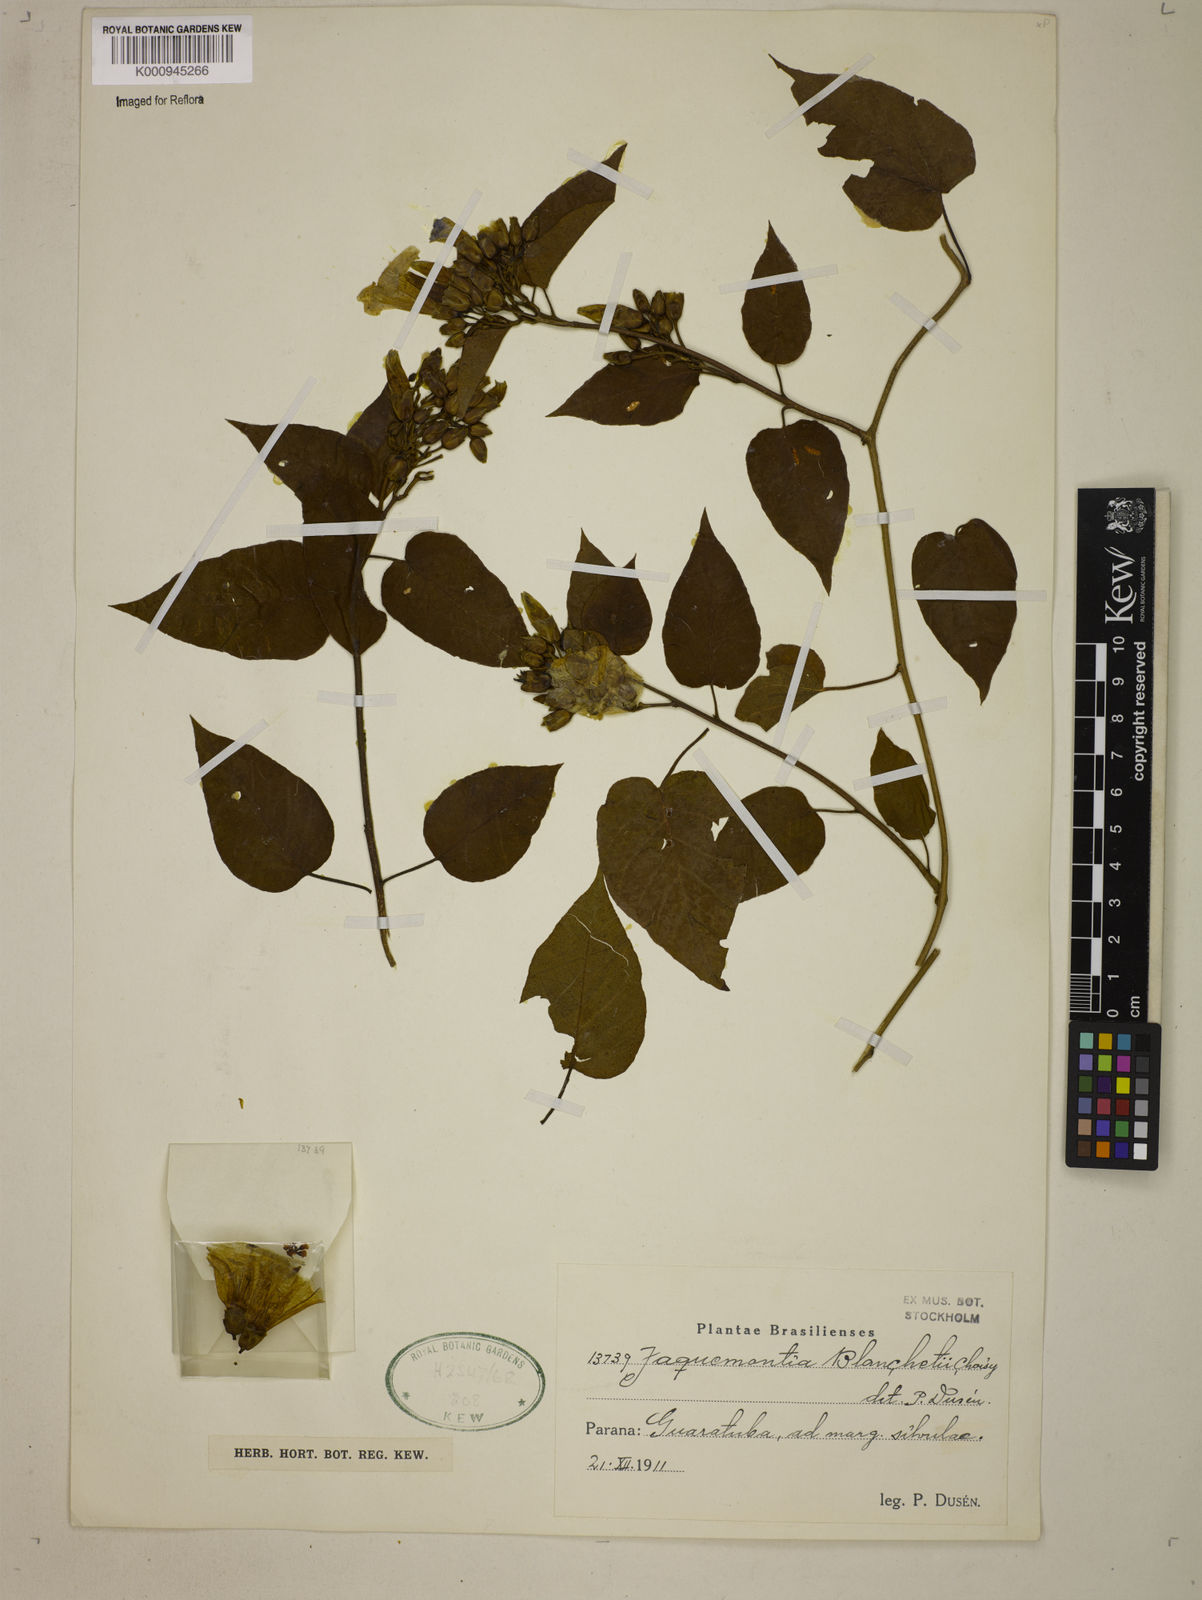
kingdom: Plantae
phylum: Tracheophyta
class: Magnoliopsida
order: Solanales
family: Convolvulaceae
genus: Jacquemontia
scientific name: Jacquemontia blanchetii
